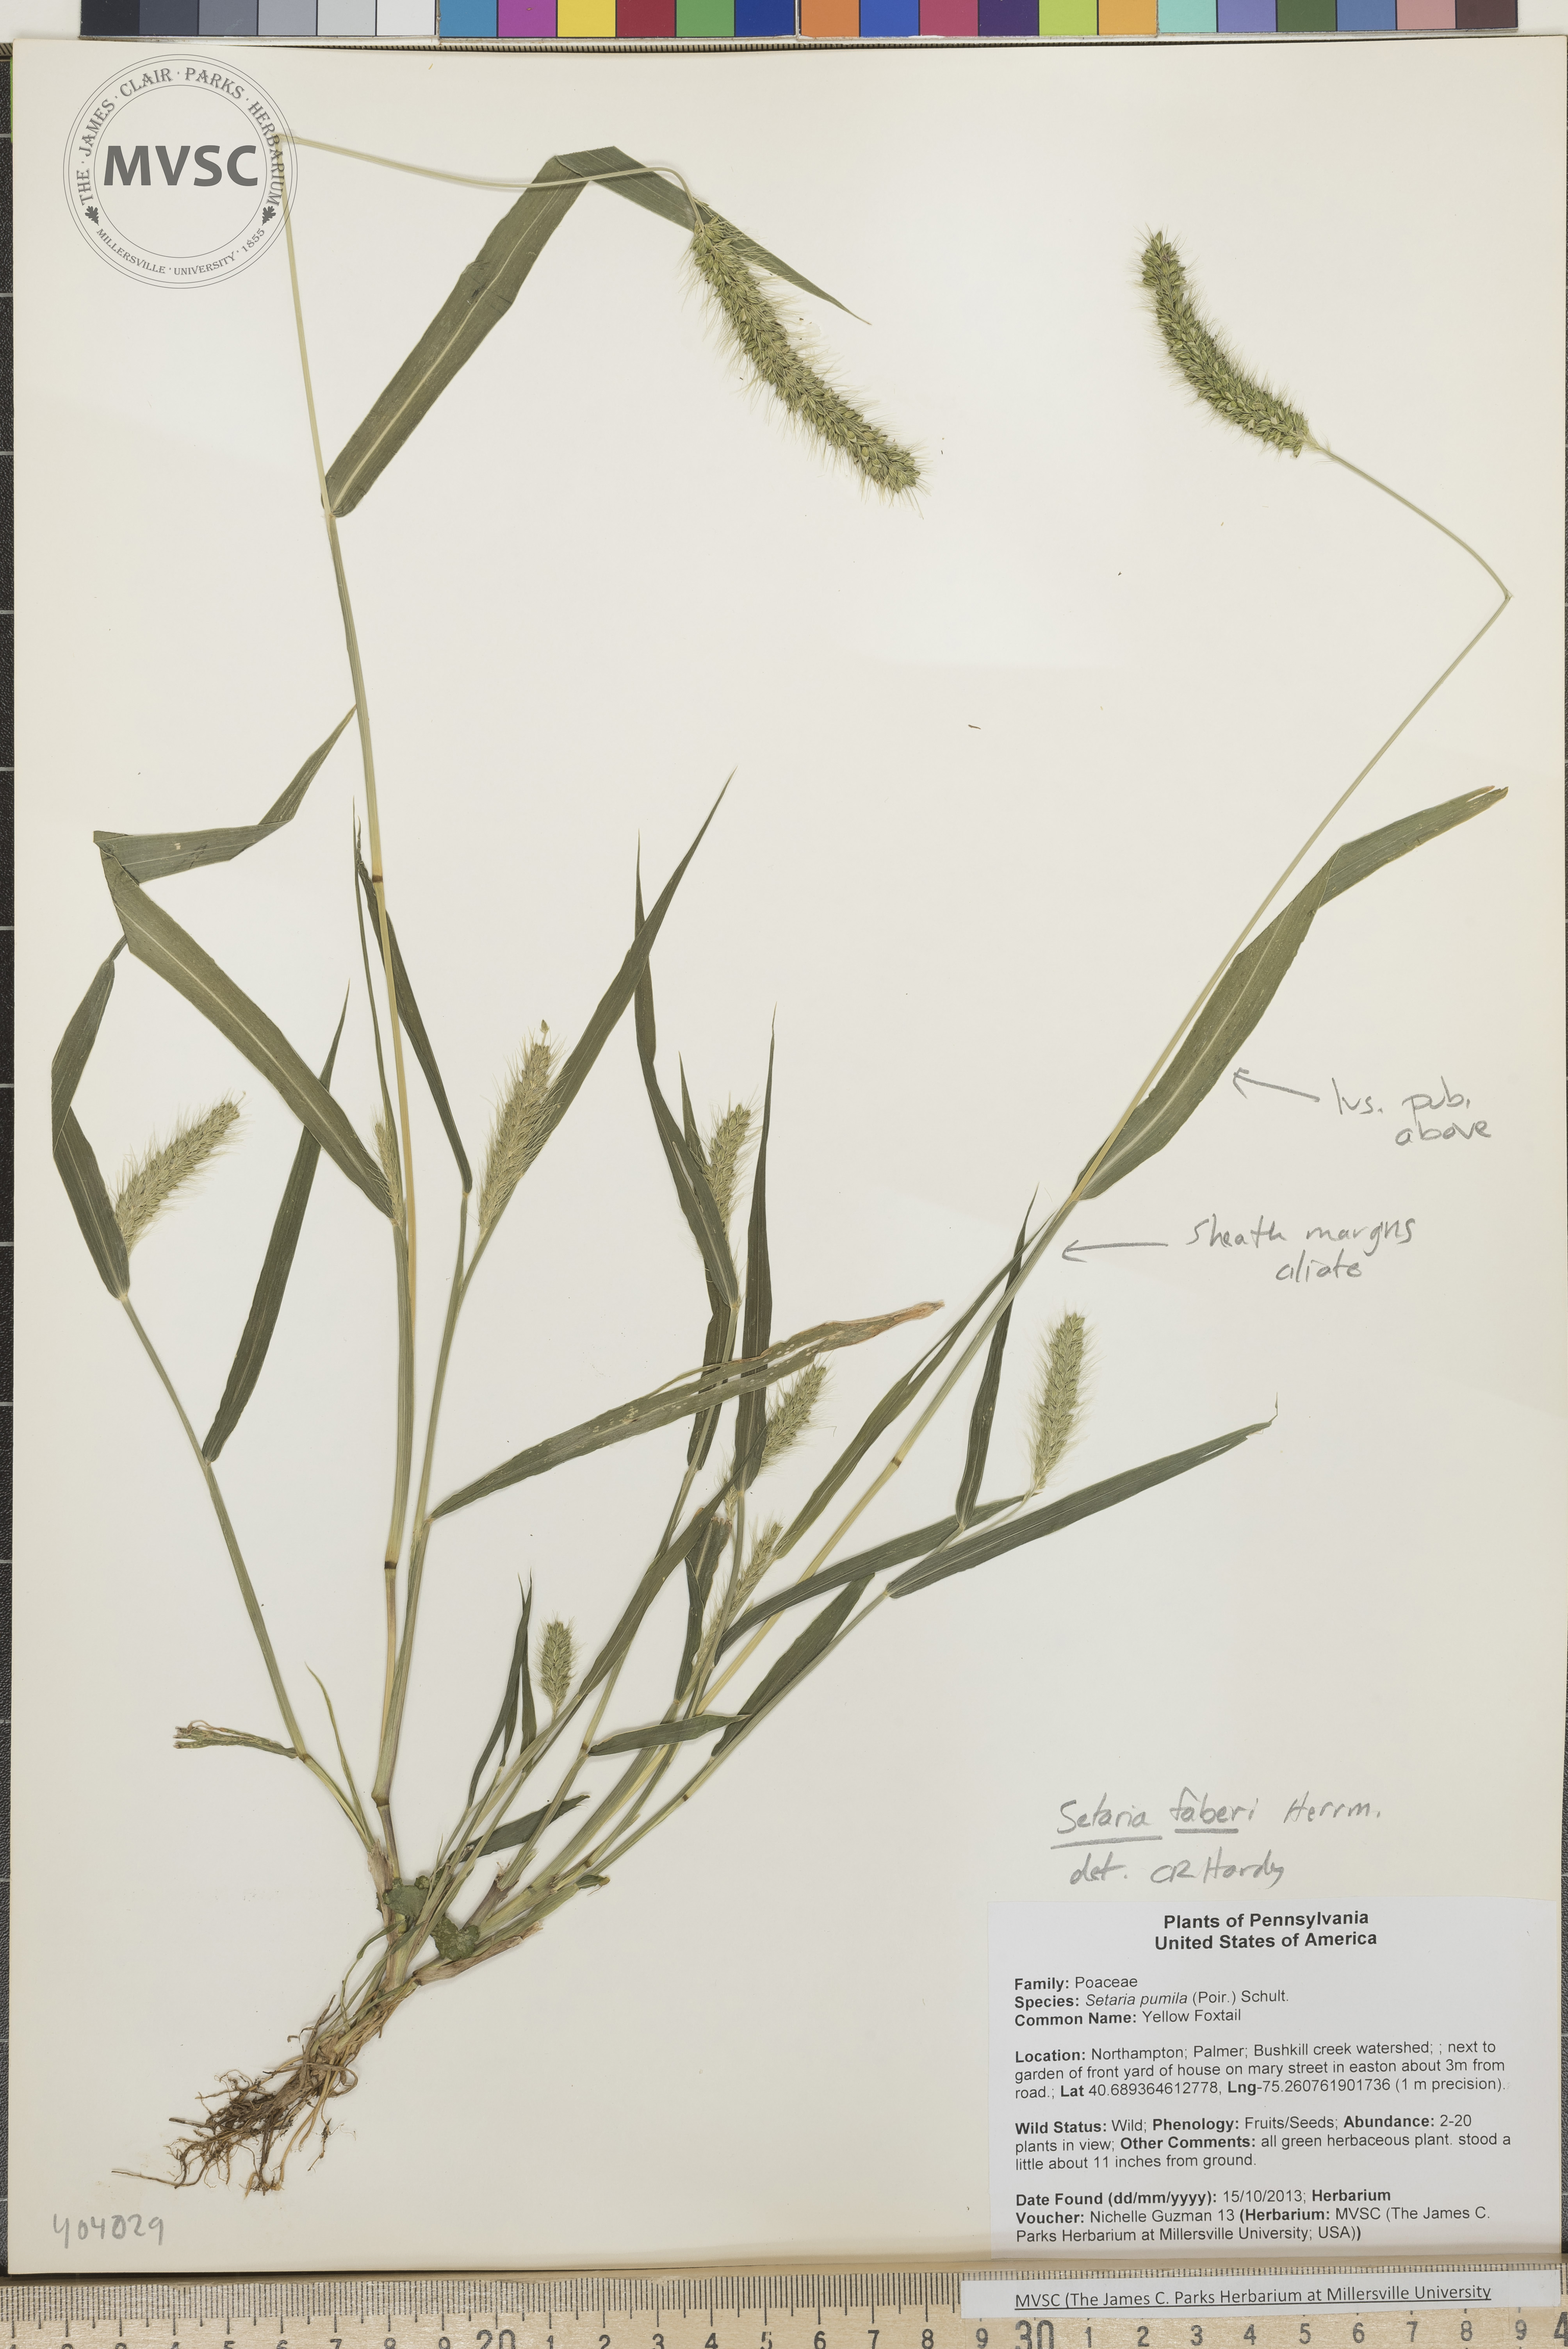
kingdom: Plantae
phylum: Tracheophyta
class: Liliopsida
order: Poales
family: Poaceae
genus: Setaria
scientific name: Setaria faberi
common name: Giant Foxtail
